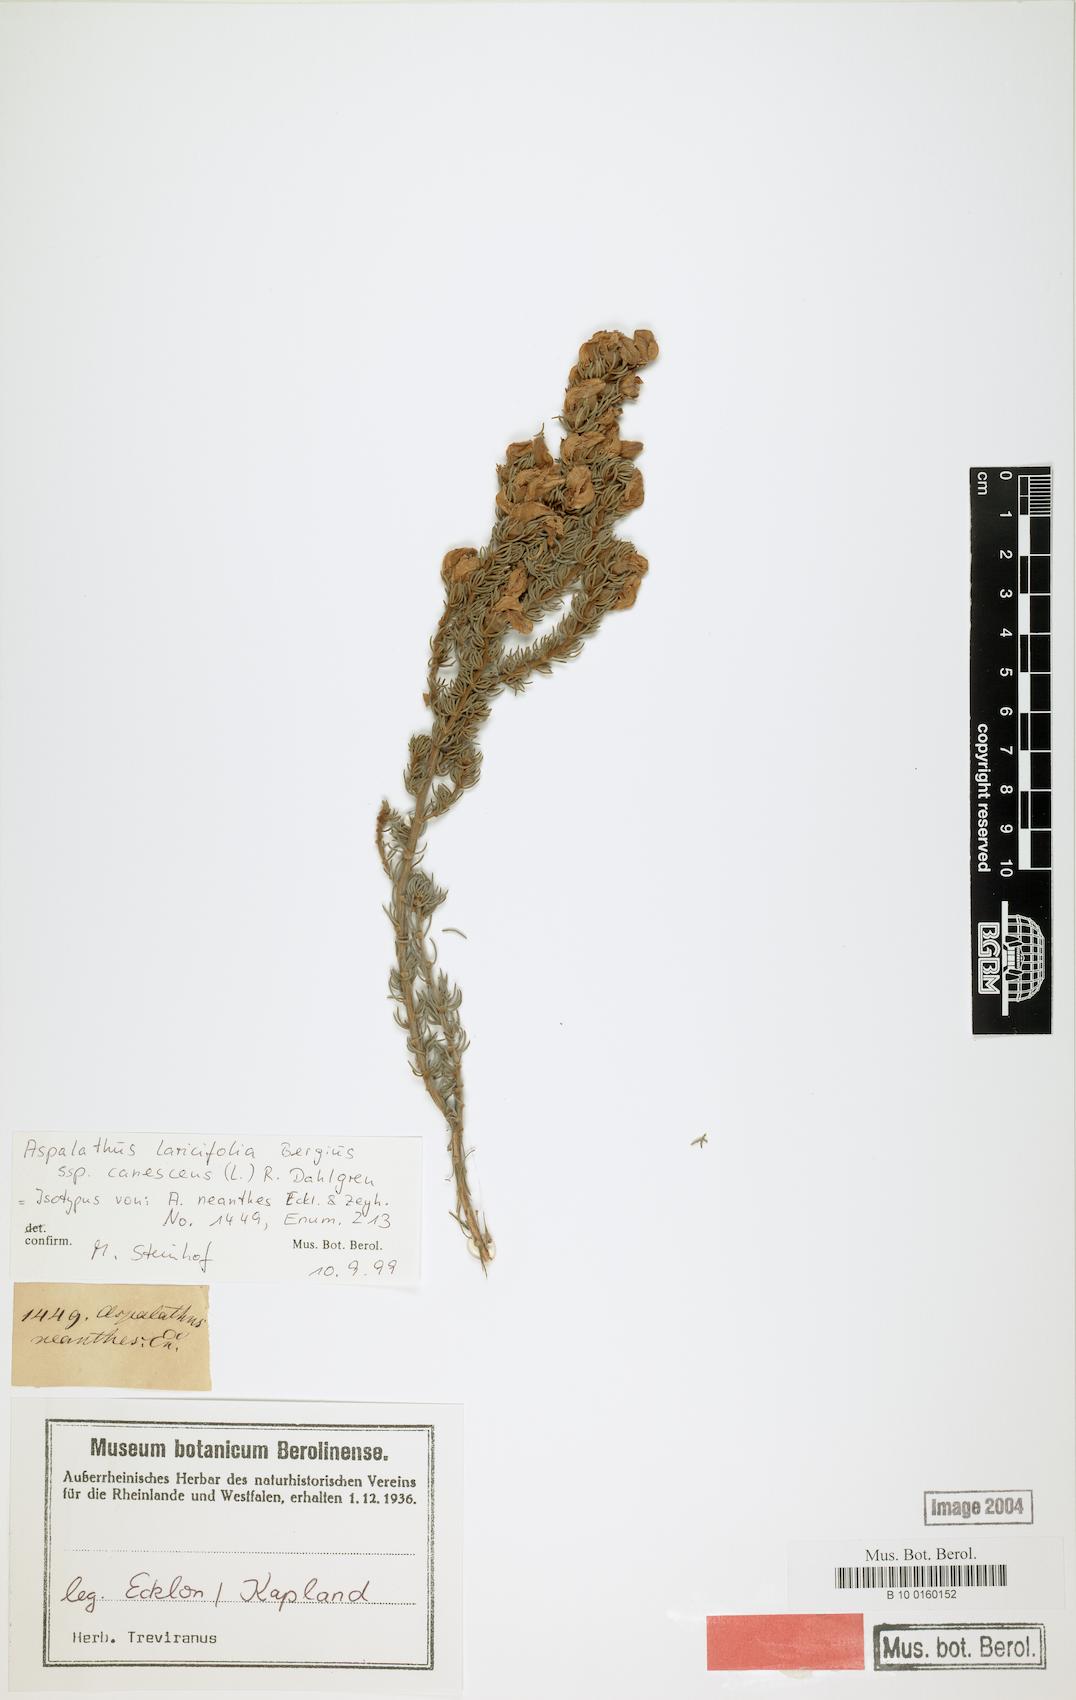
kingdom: Plantae
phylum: Tracheophyta
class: Magnoliopsida
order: Fabales
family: Fabaceae
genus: Aspalathus
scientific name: Aspalathus laricifolia
